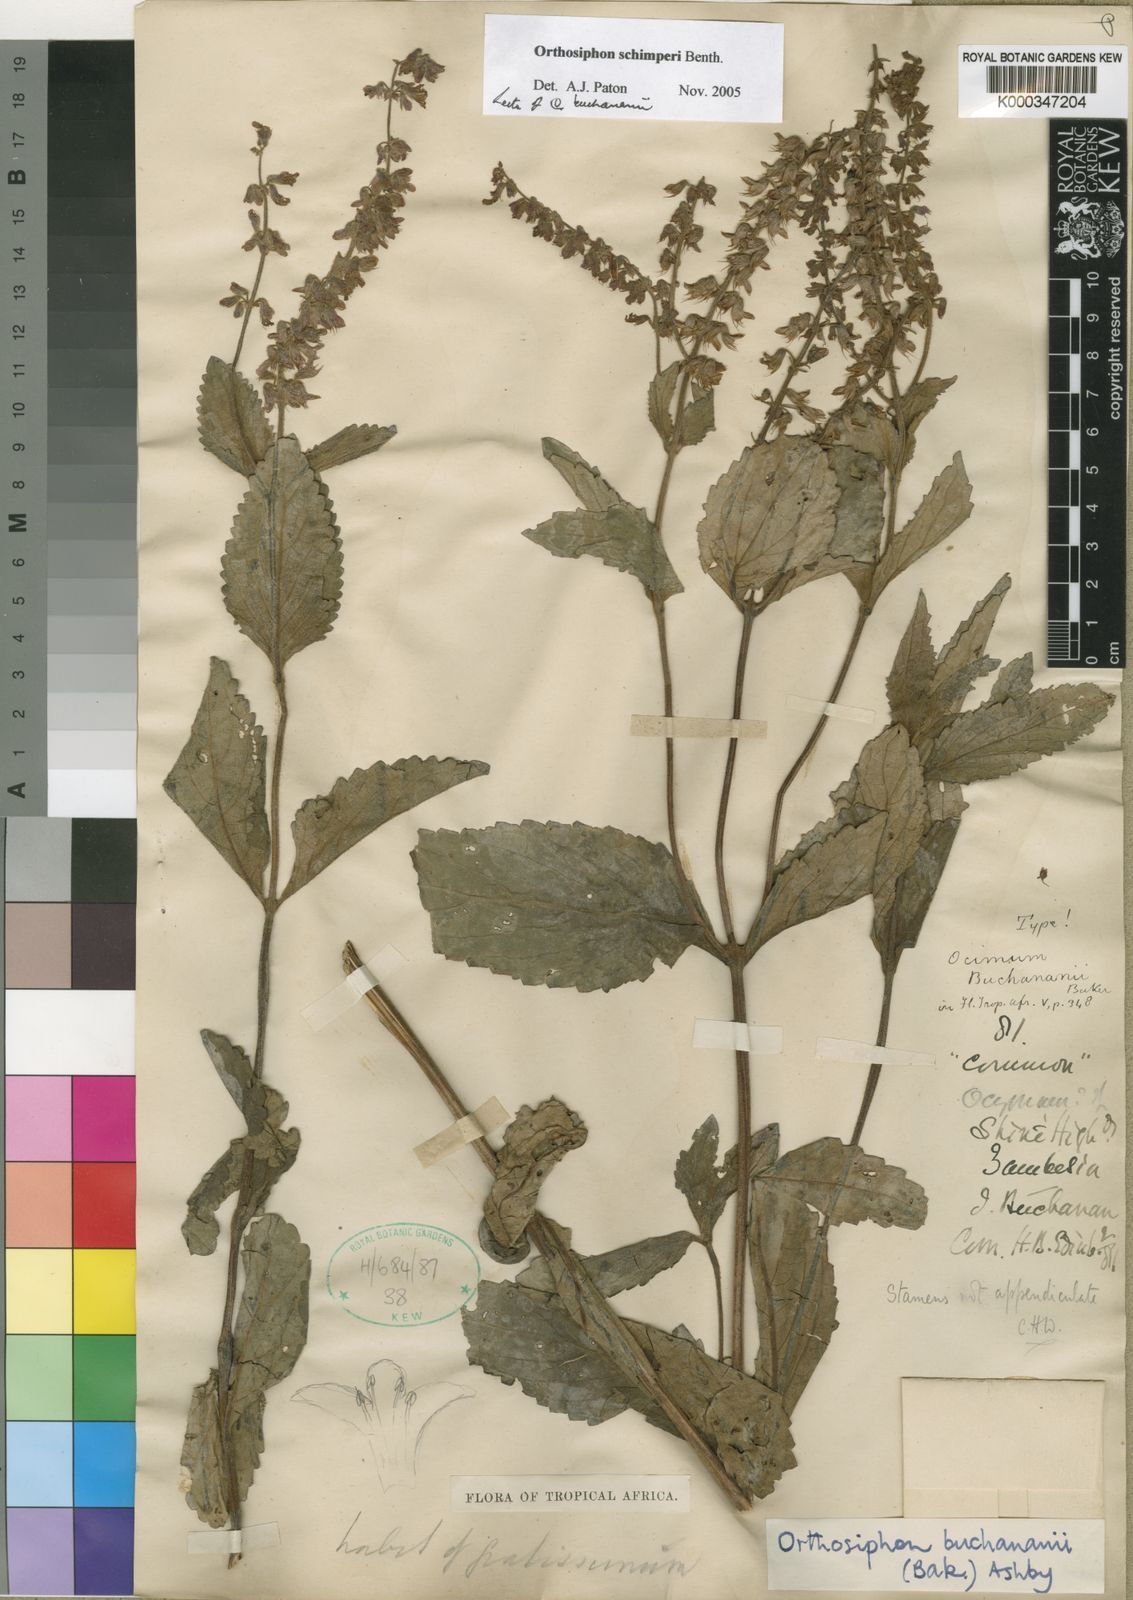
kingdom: Plantae
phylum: Tracheophyta
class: Magnoliopsida
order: Lamiales
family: Lamiaceae
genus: Orthosiphon
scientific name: Orthosiphon schimperi
